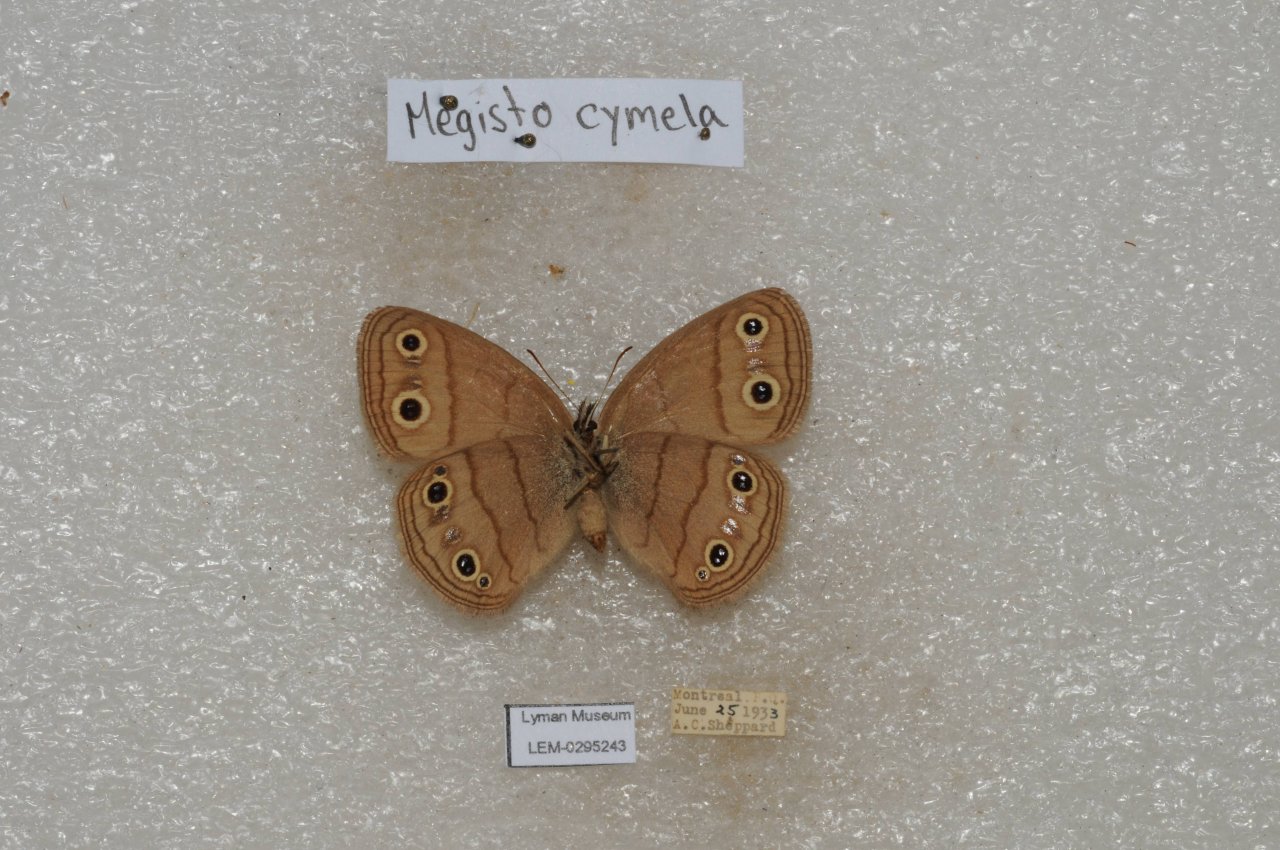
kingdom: Animalia
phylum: Arthropoda
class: Insecta
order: Lepidoptera
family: Nymphalidae
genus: Euptychia
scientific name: Euptychia cymela
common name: Little Wood Satyr
